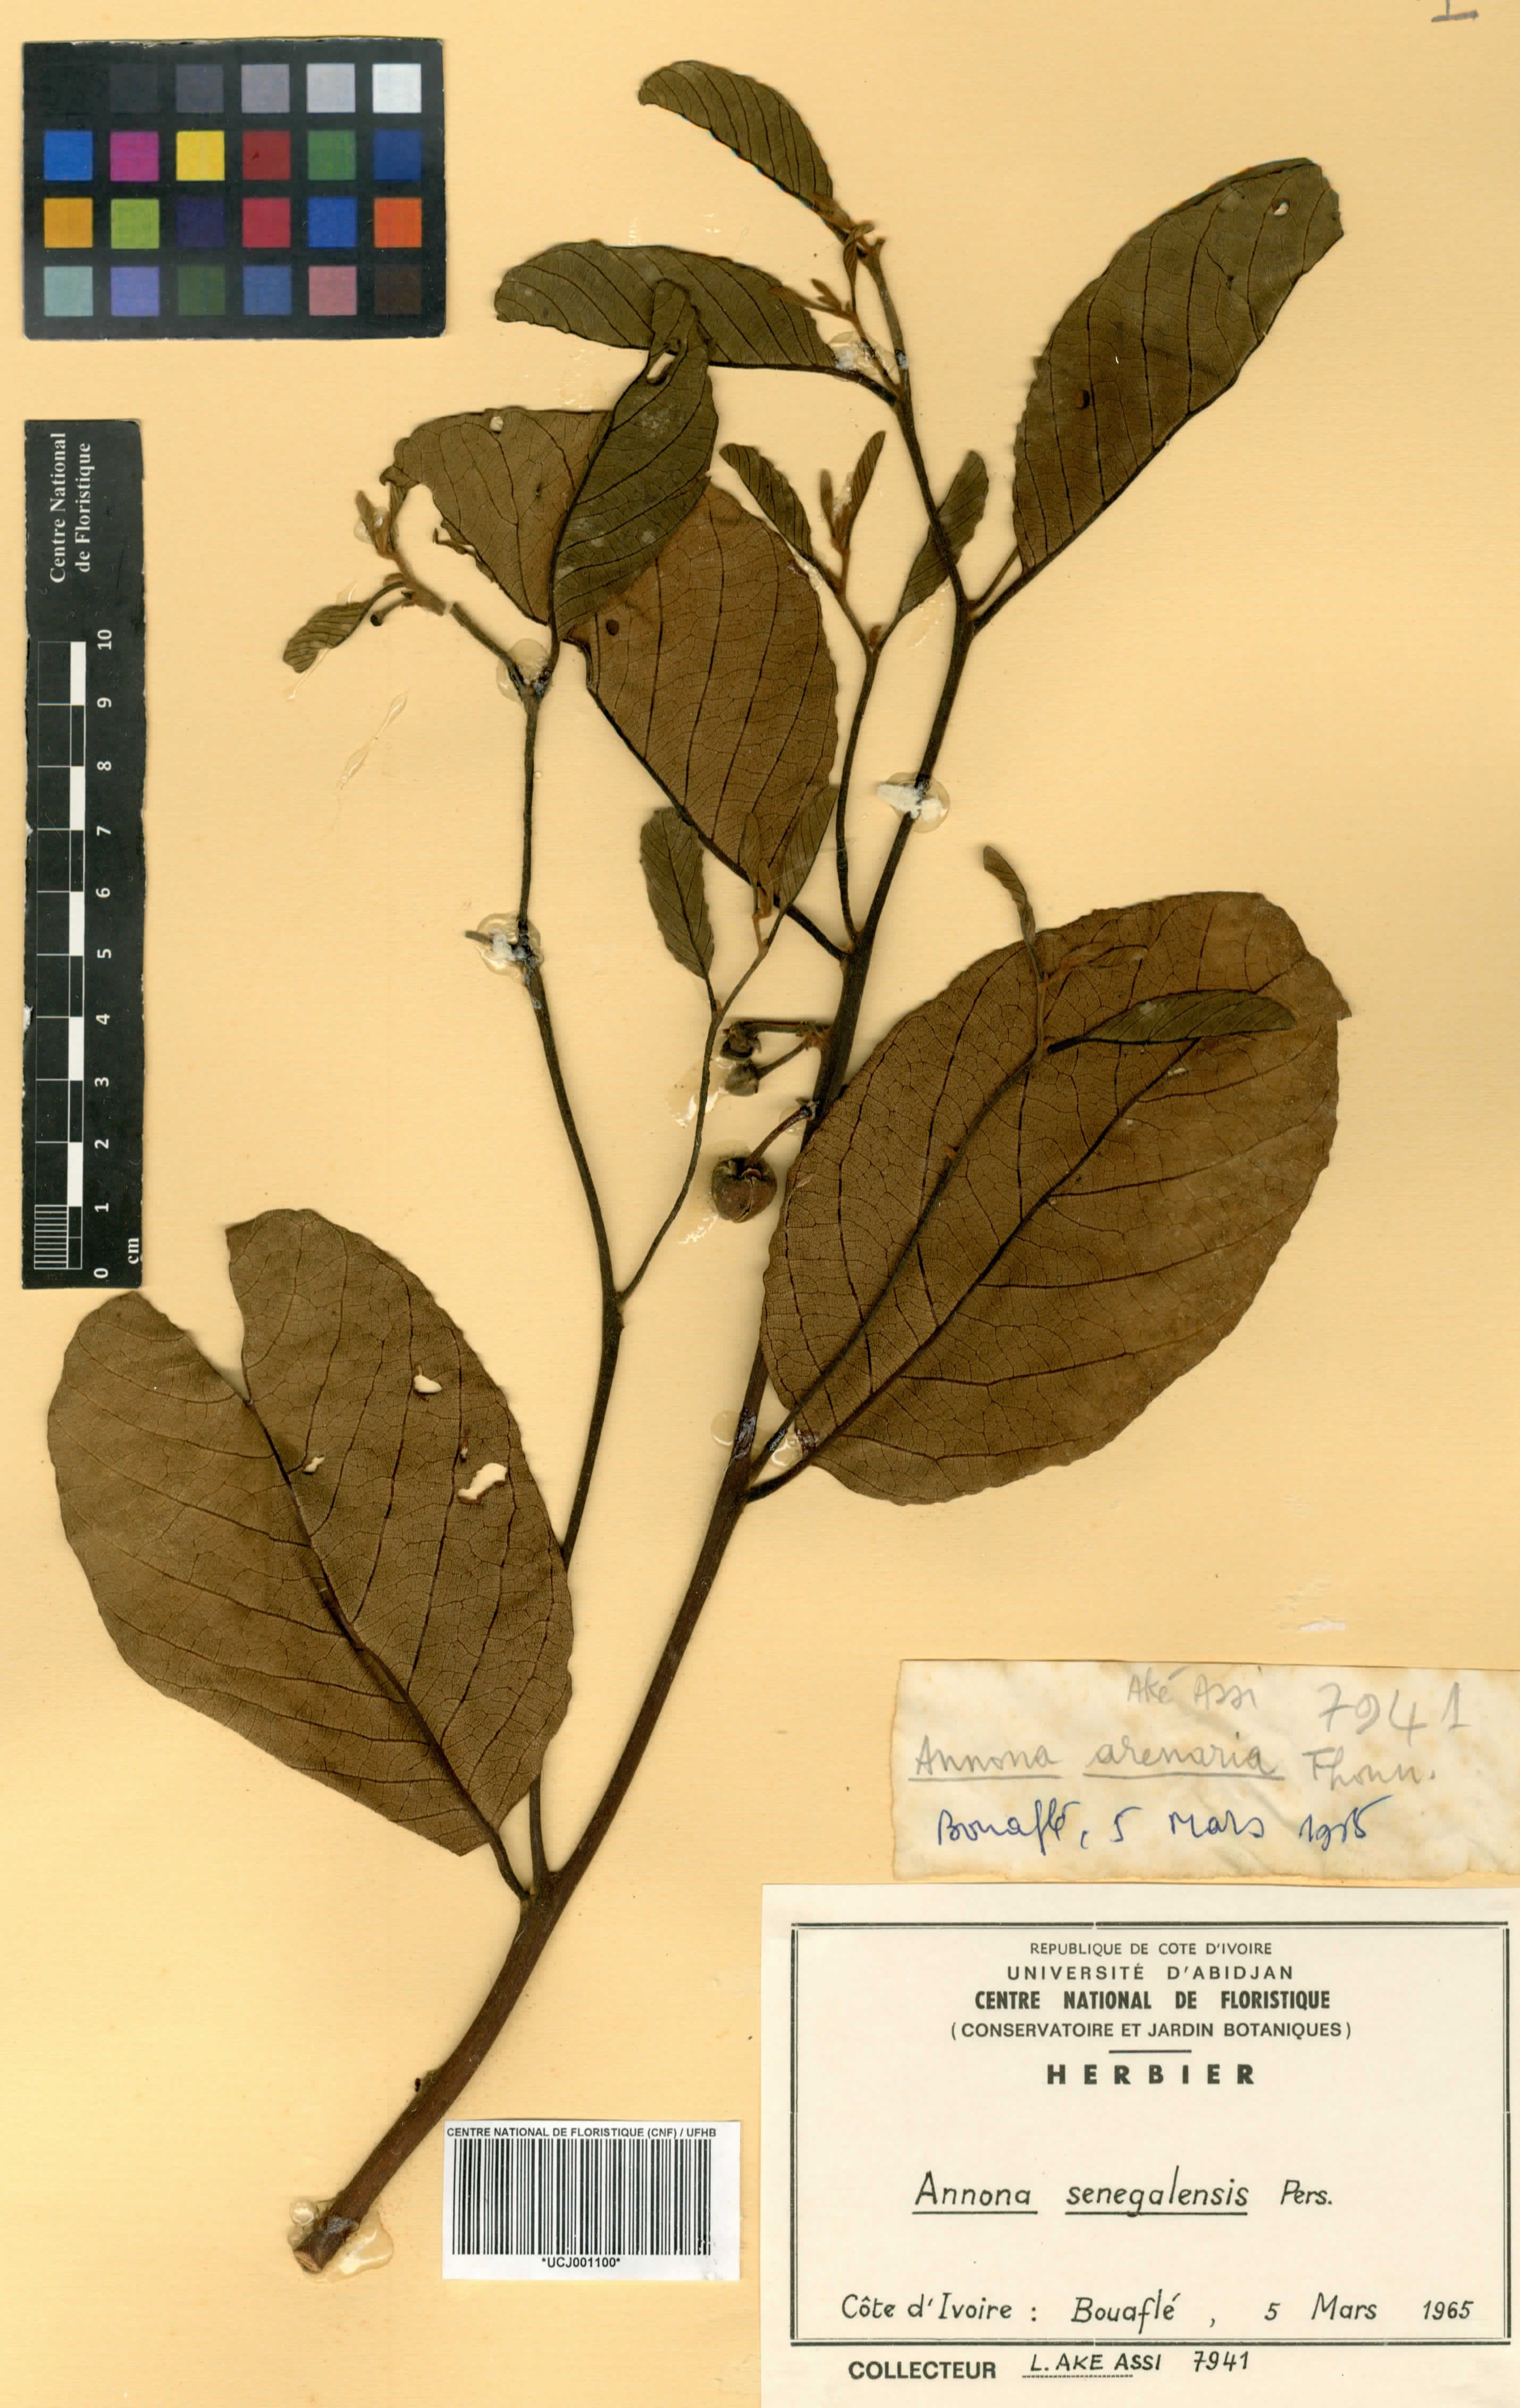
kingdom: Plantae
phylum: Tracheophyta
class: Magnoliopsida
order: Magnoliales
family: Annonaceae
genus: Annona
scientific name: Annona senegalensis
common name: Wild custard-apple
